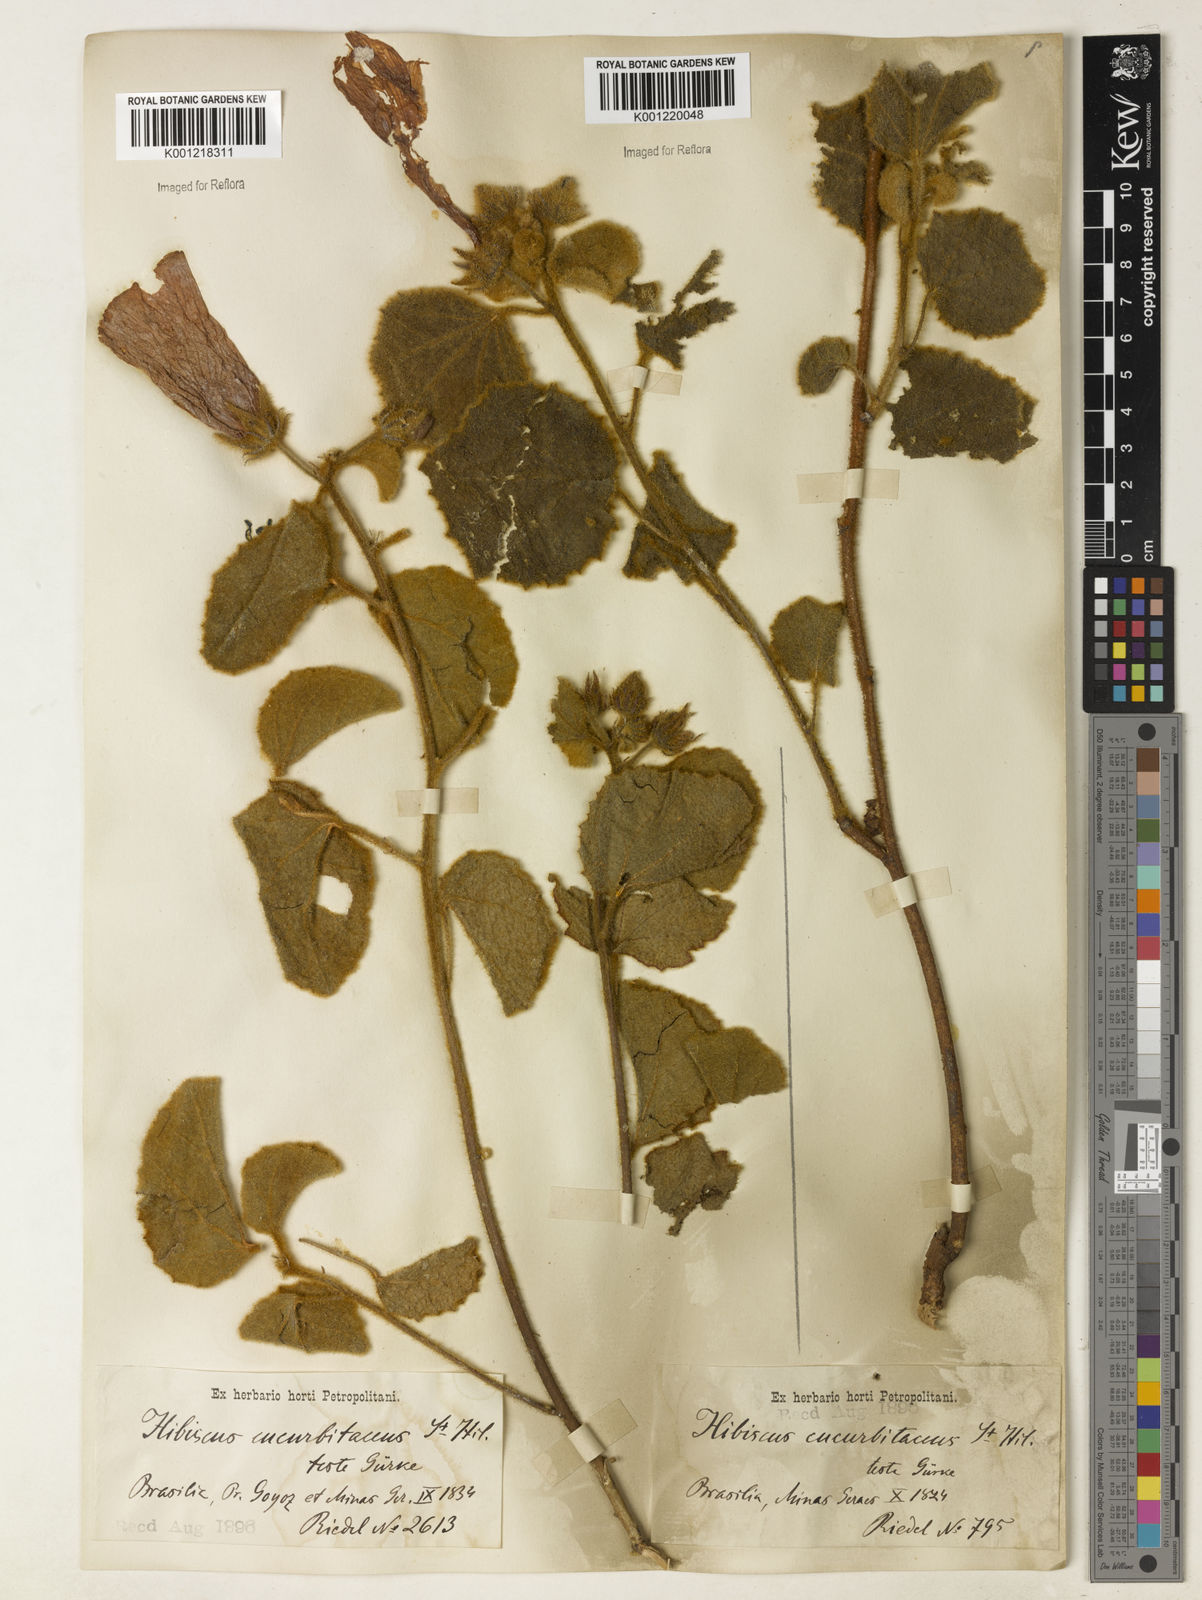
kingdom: Plantae
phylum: Tracheophyta
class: Magnoliopsida
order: Malvales
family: Malvaceae
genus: Hibiscus
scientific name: Hibiscus cucurbitaceus
